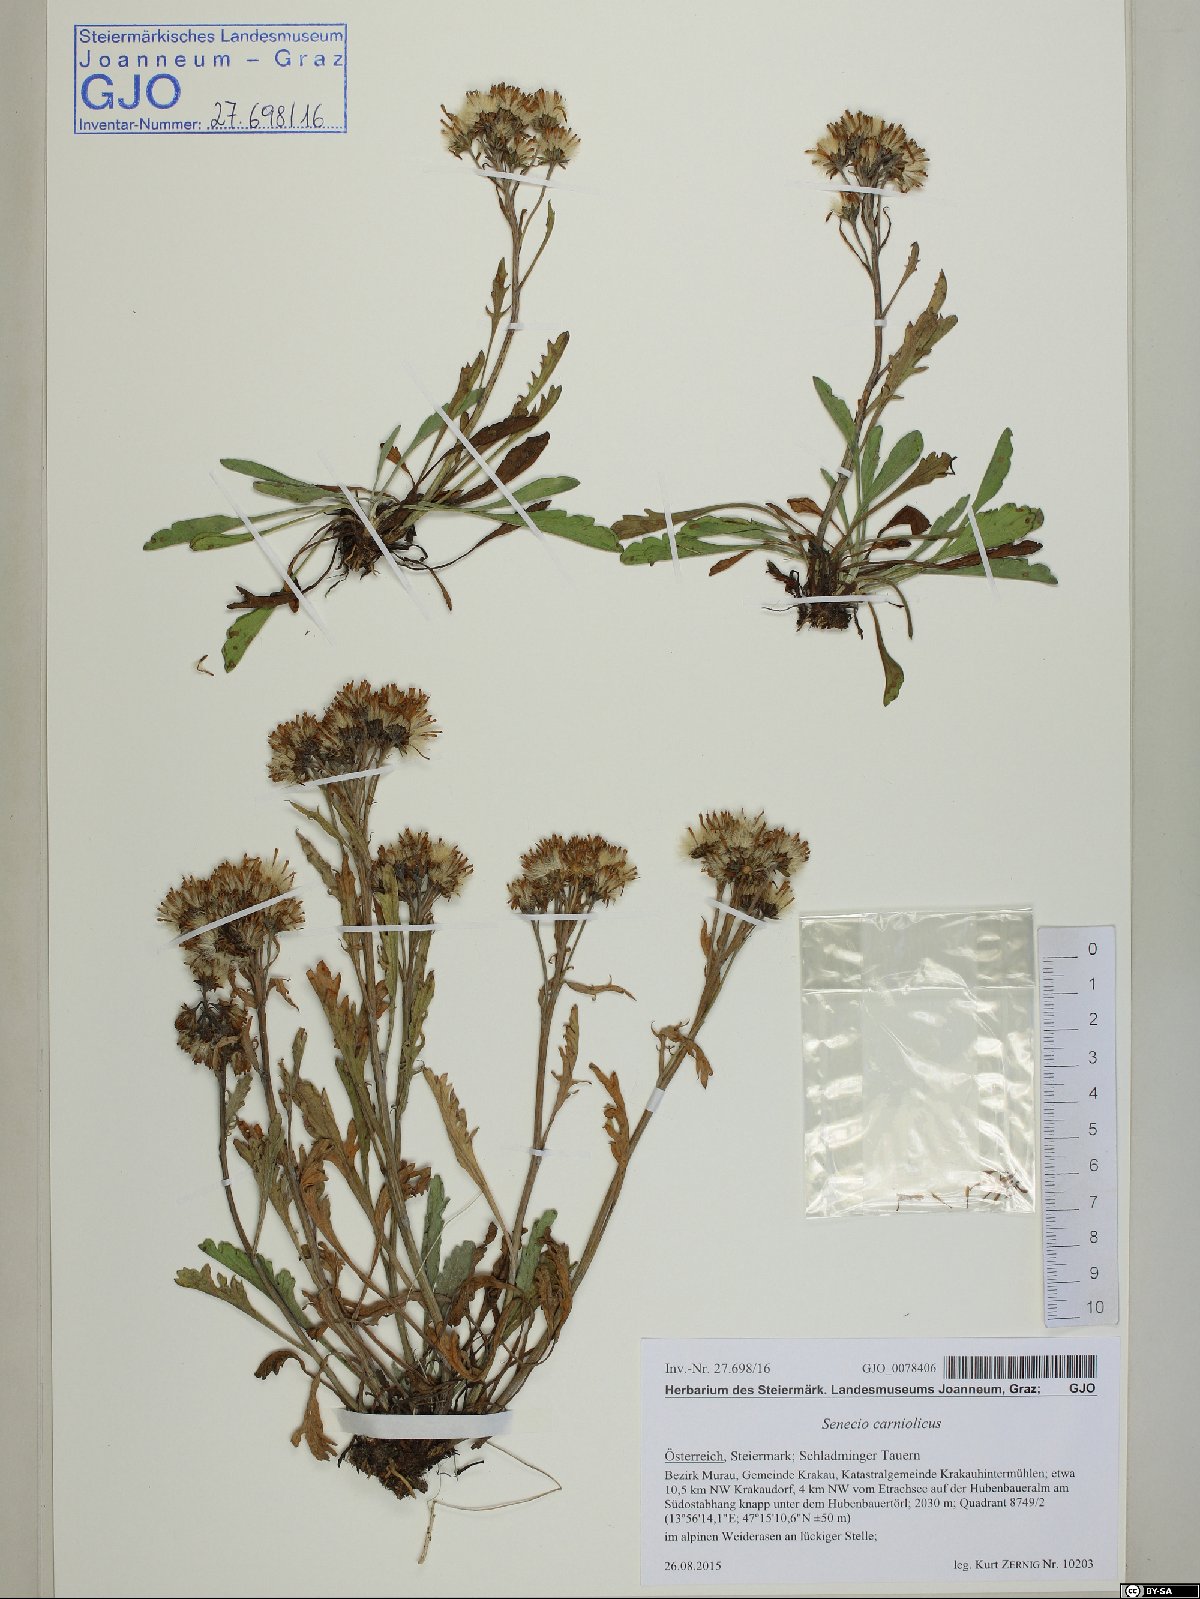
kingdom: Plantae
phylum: Tracheophyta
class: Magnoliopsida
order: Asterales
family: Asteraceae
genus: Jacobaea
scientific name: Jacobaea carniolica
